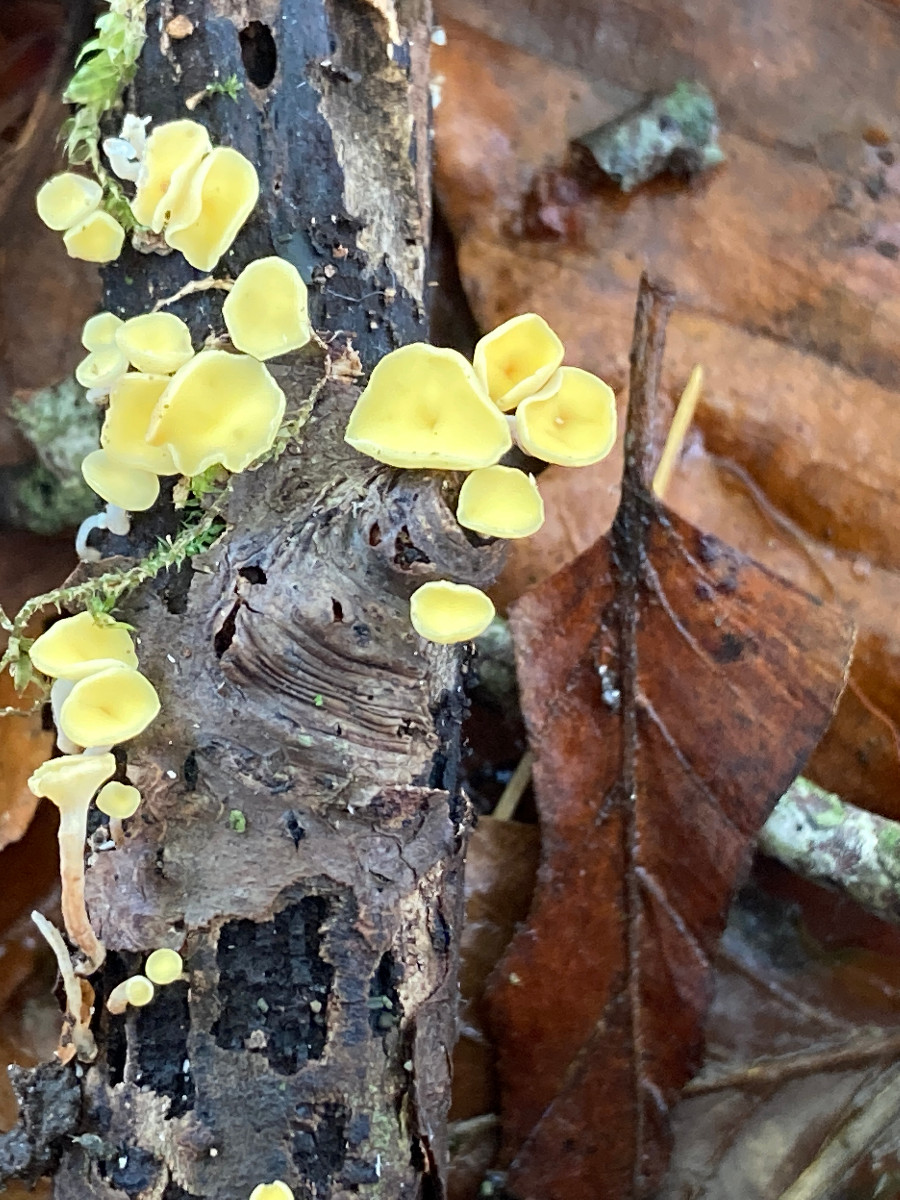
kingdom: Fungi
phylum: Ascomycota
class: Leotiomycetes
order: Helotiales
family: Helotiaceae
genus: Hymenoscyphus
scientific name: Hymenoscyphus
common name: stilkskive
